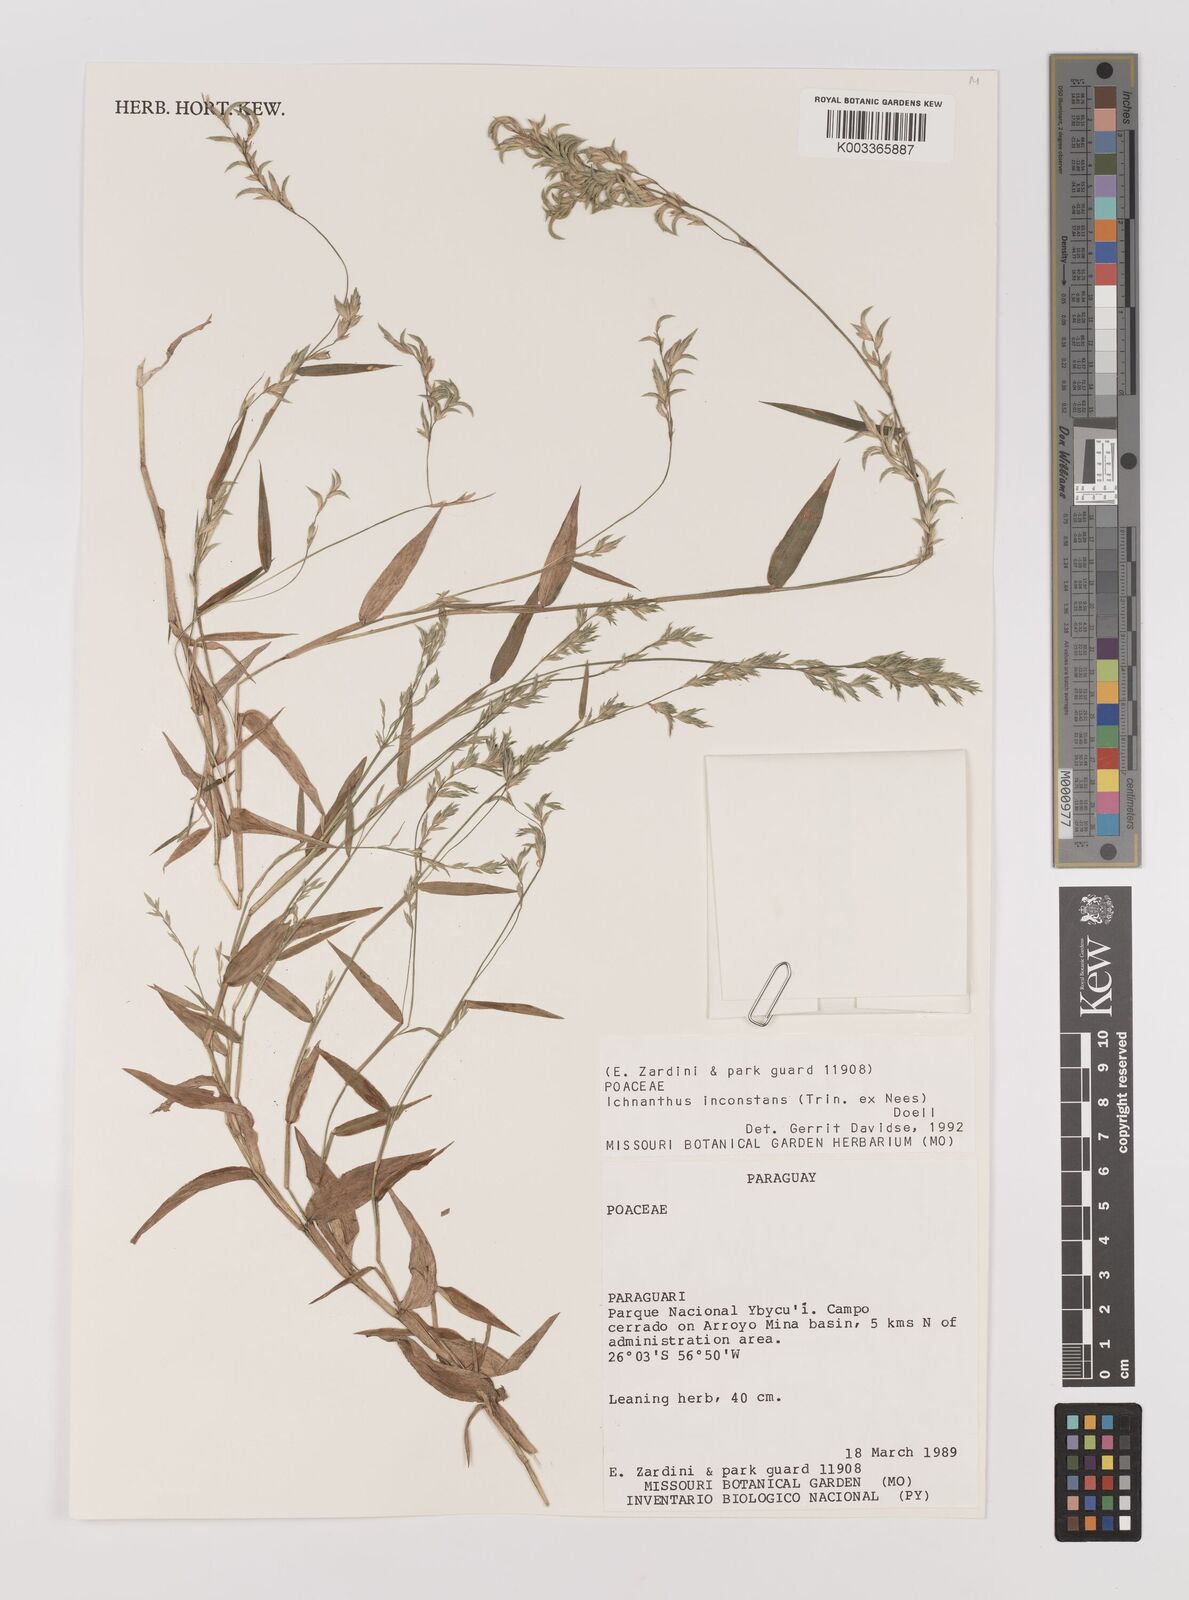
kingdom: Plantae
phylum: Tracheophyta
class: Liliopsida
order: Poales
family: Poaceae
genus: Ichnanthus
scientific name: Ichnanthus inconstans
